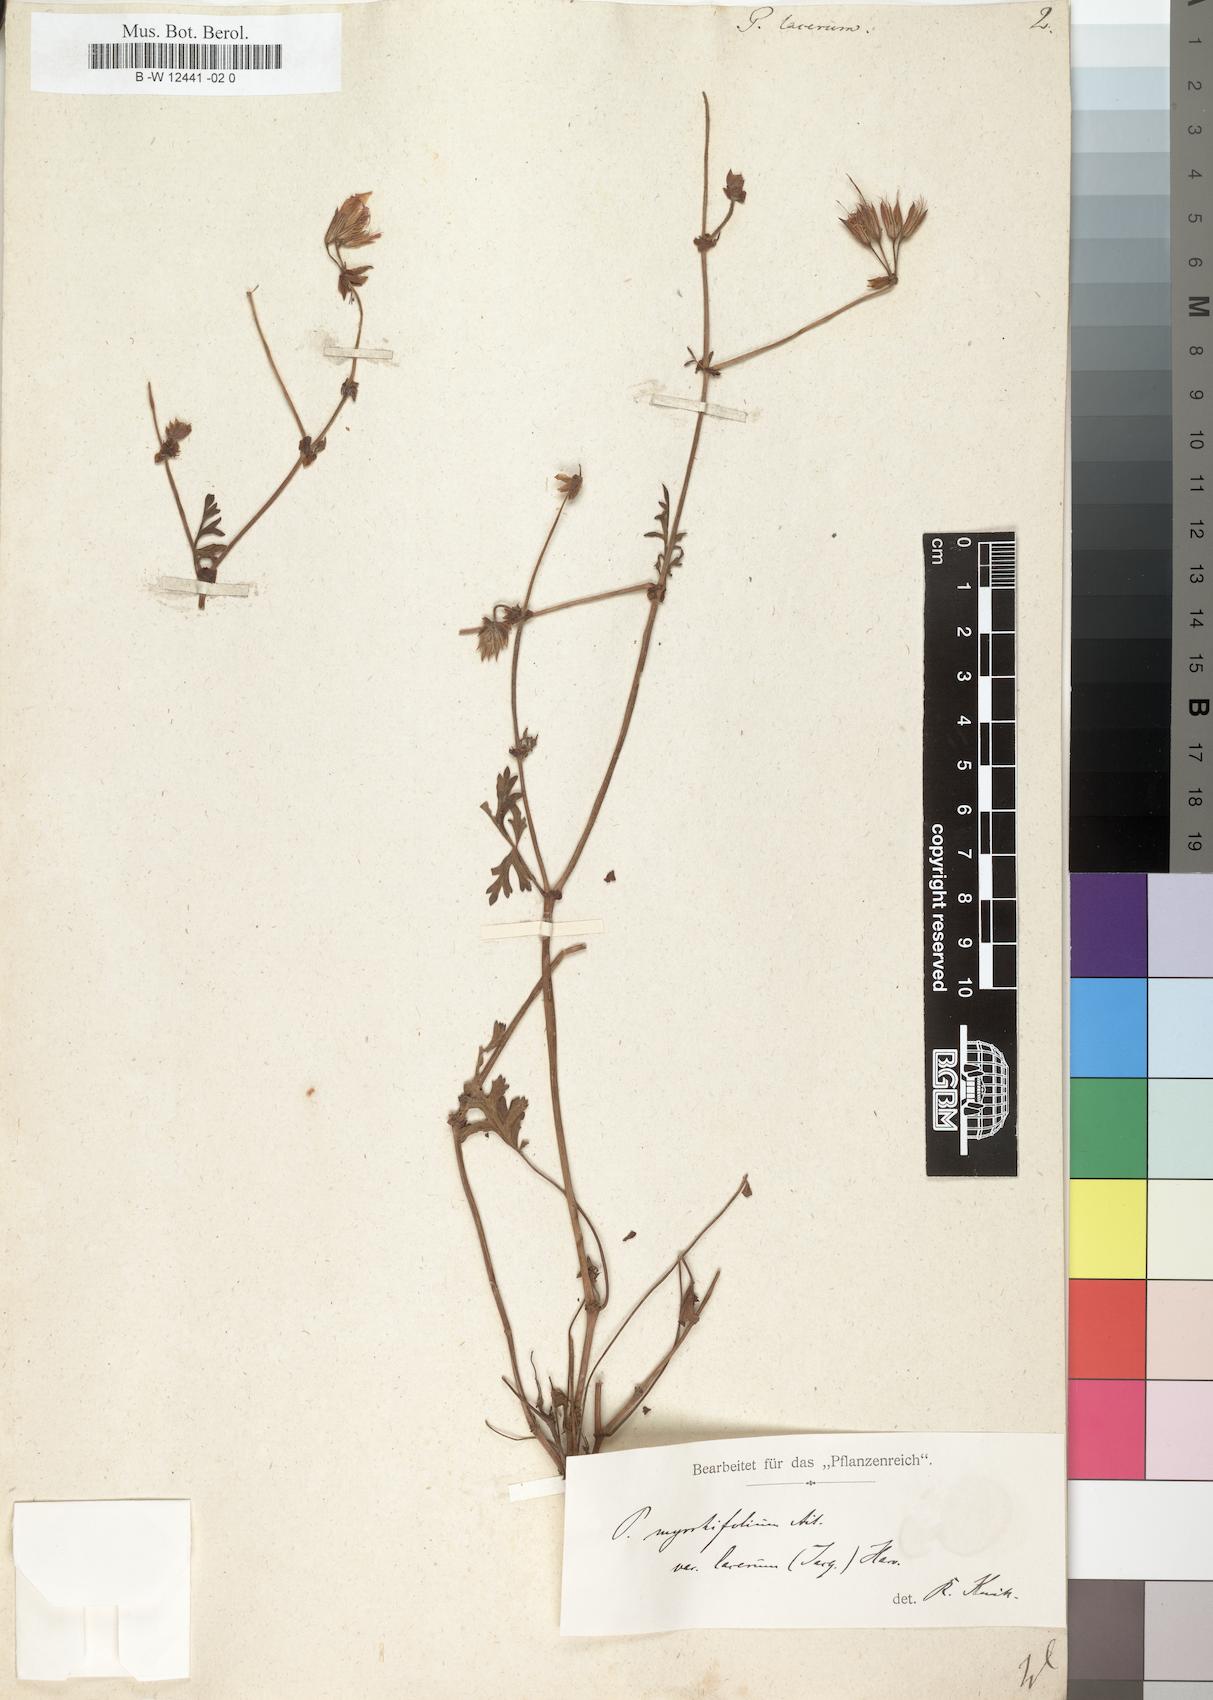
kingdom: Plantae
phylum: Tracheophyta
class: Magnoliopsida
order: Geraniales
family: Geraniaceae
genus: Pelargonium
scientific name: Pelargonium myrrhifolium
